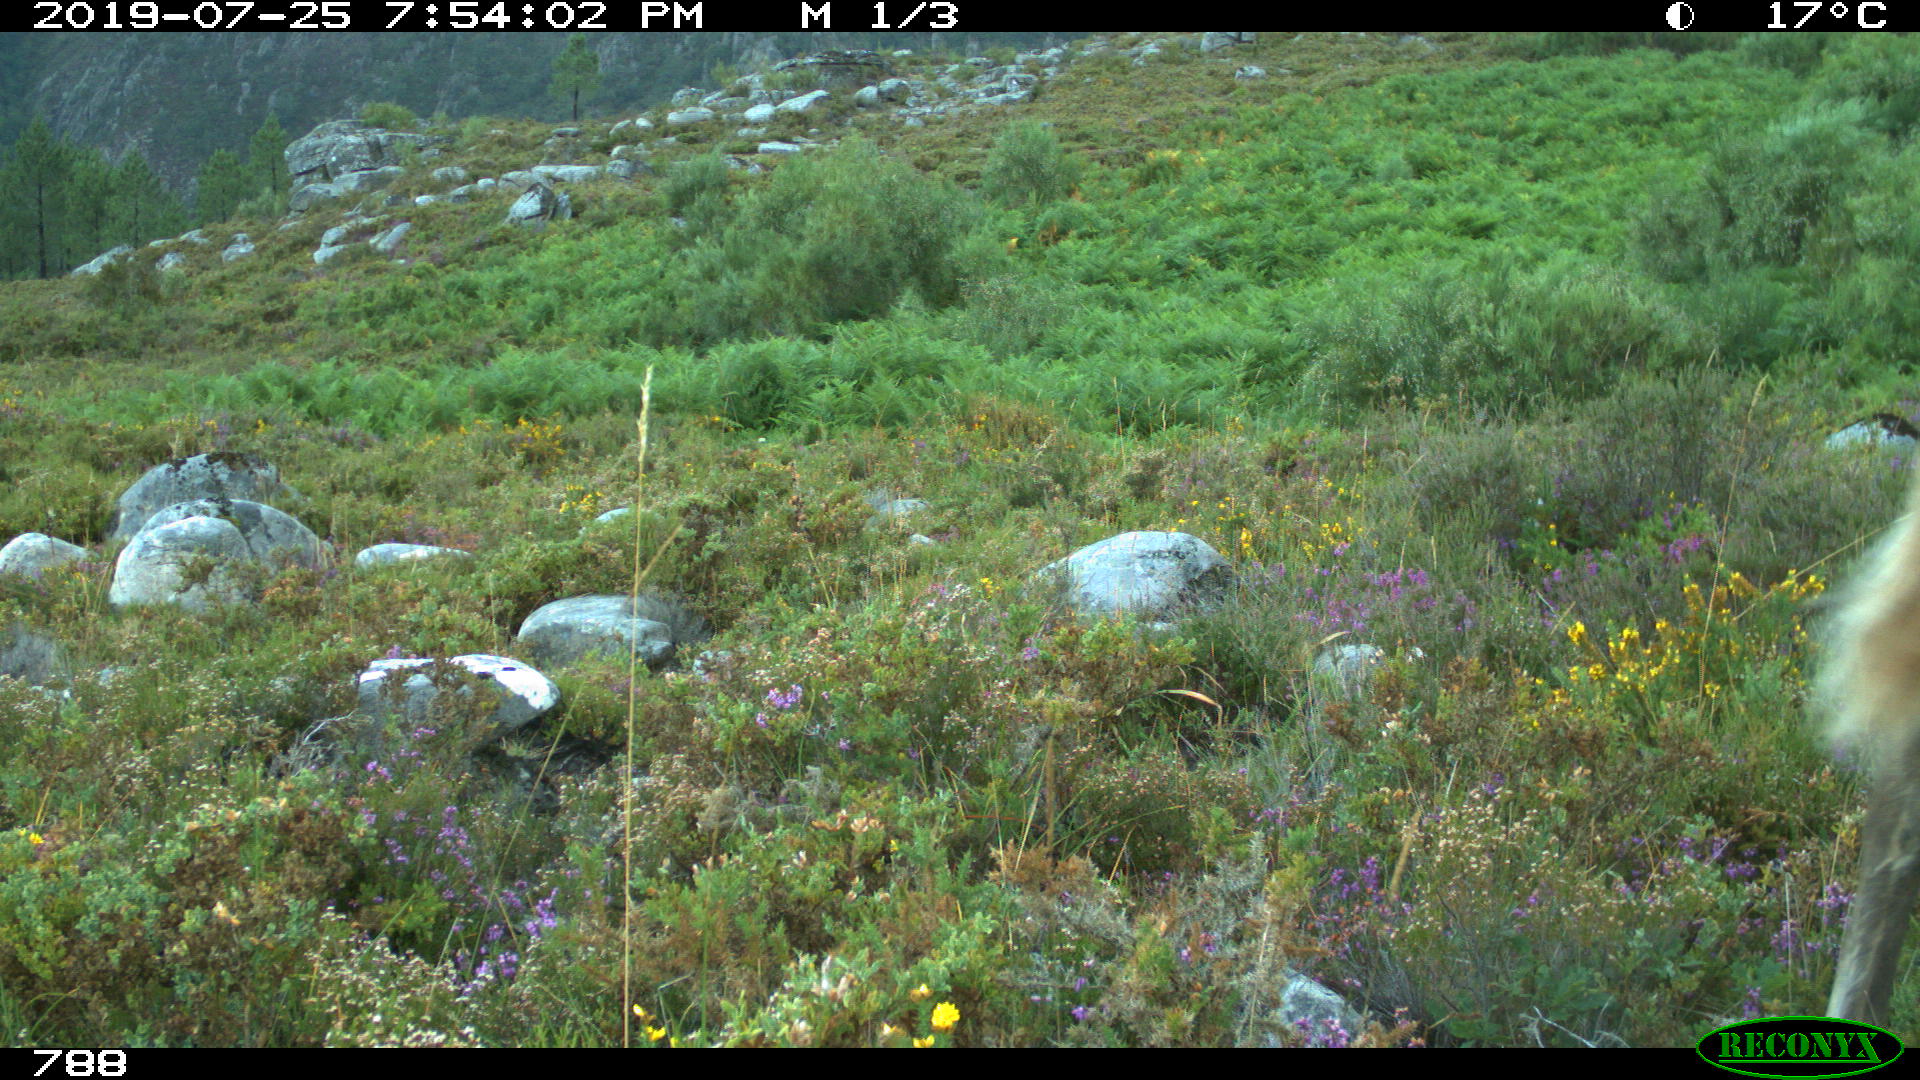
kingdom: Animalia
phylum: Chordata
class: Mammalia
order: Perissodactyla
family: Equidae
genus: Equus
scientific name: Equus caballus
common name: Horse
